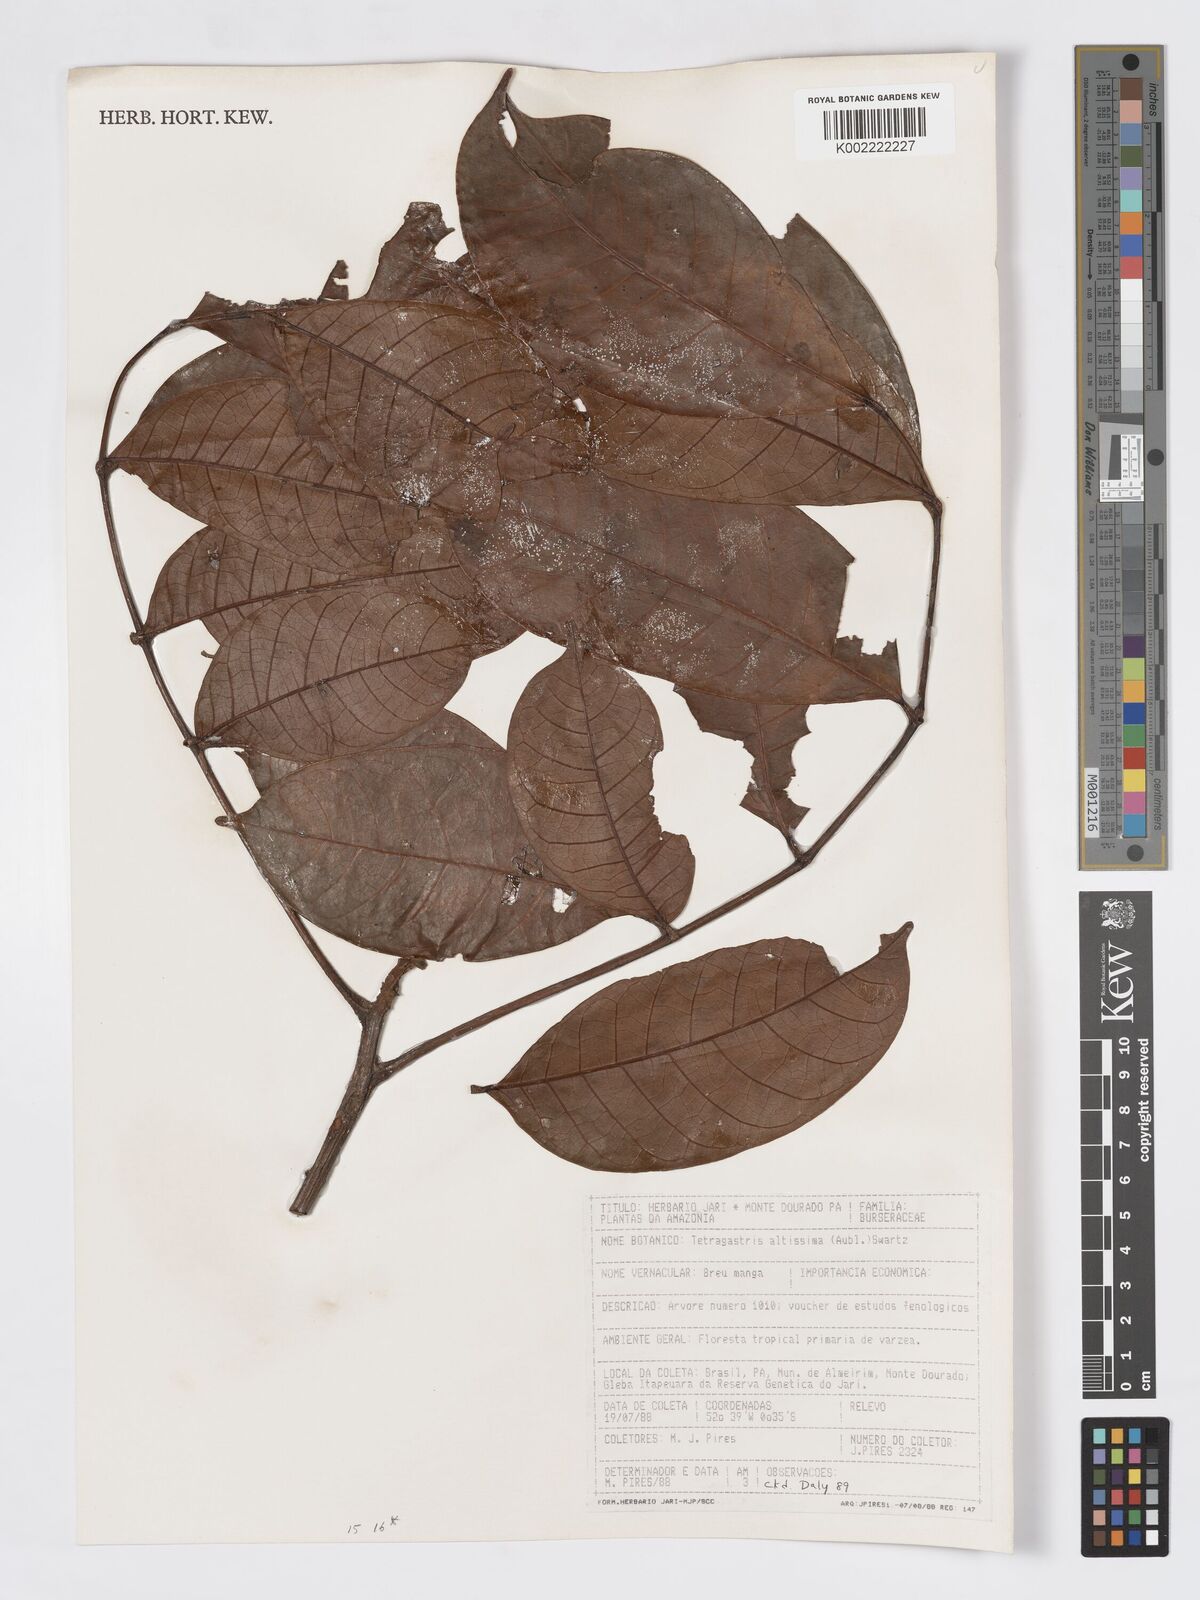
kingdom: Plantae
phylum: Tracheophyta
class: Magnoliopsida
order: Sapindales
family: Burseraceae
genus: Tetragastris
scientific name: Tetragastris altissima
